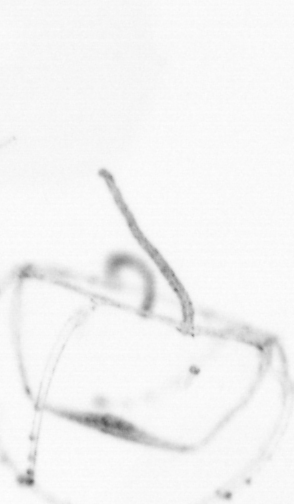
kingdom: Animalia
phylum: Cnidaria
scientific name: Cnidaria
